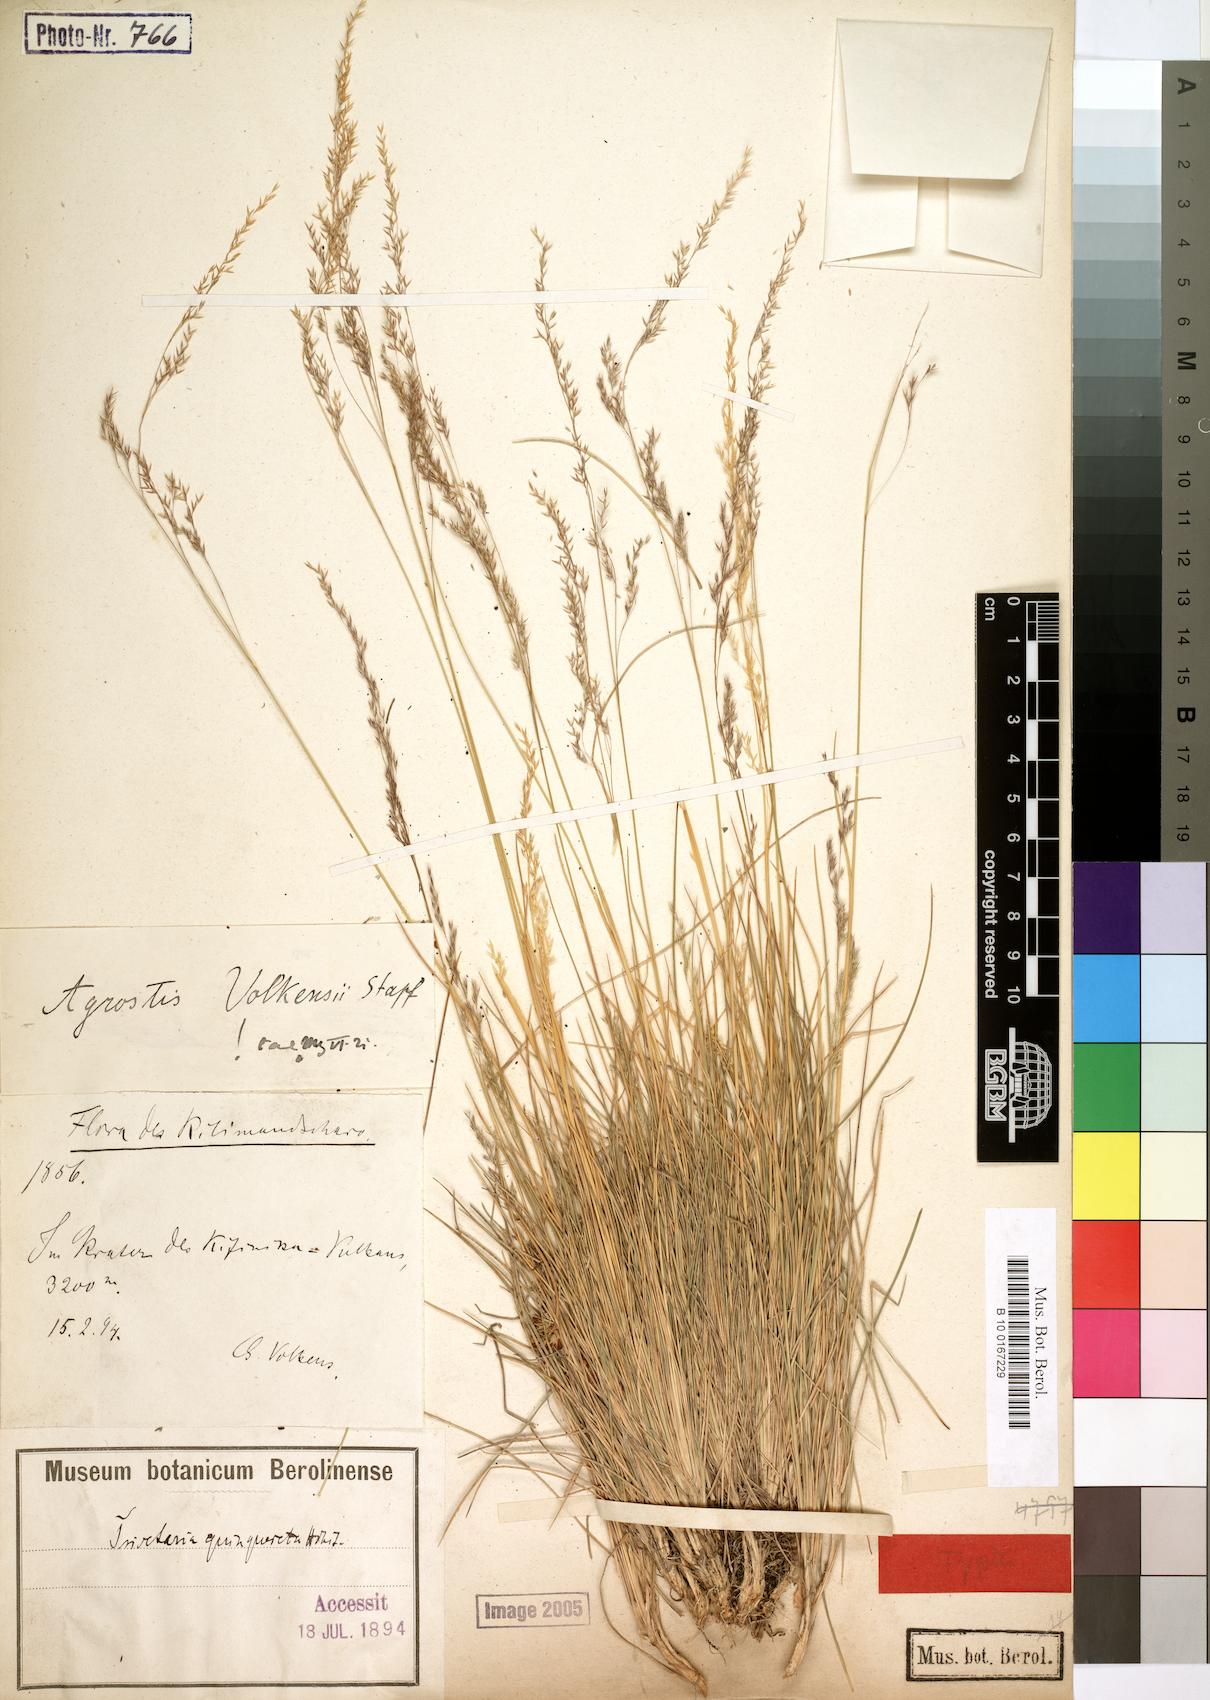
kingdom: Plantae
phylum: Tracheophyta
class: Liliopsida
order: Poales
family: Poaceae
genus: Agrostis
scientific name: Agrostis volkensii
